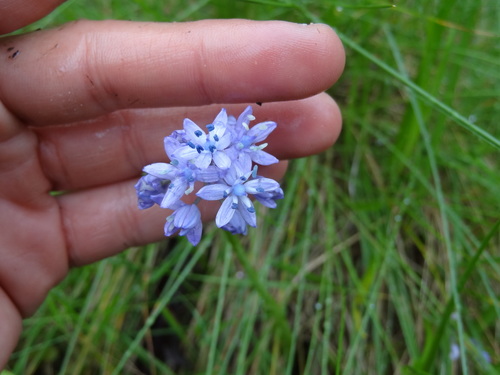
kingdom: Plantae
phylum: Tracheophyta
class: Liliopsida
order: Asparagales
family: Asparagaceae
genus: Hyacinthoides
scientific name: Hyacinthoides mauritanica
